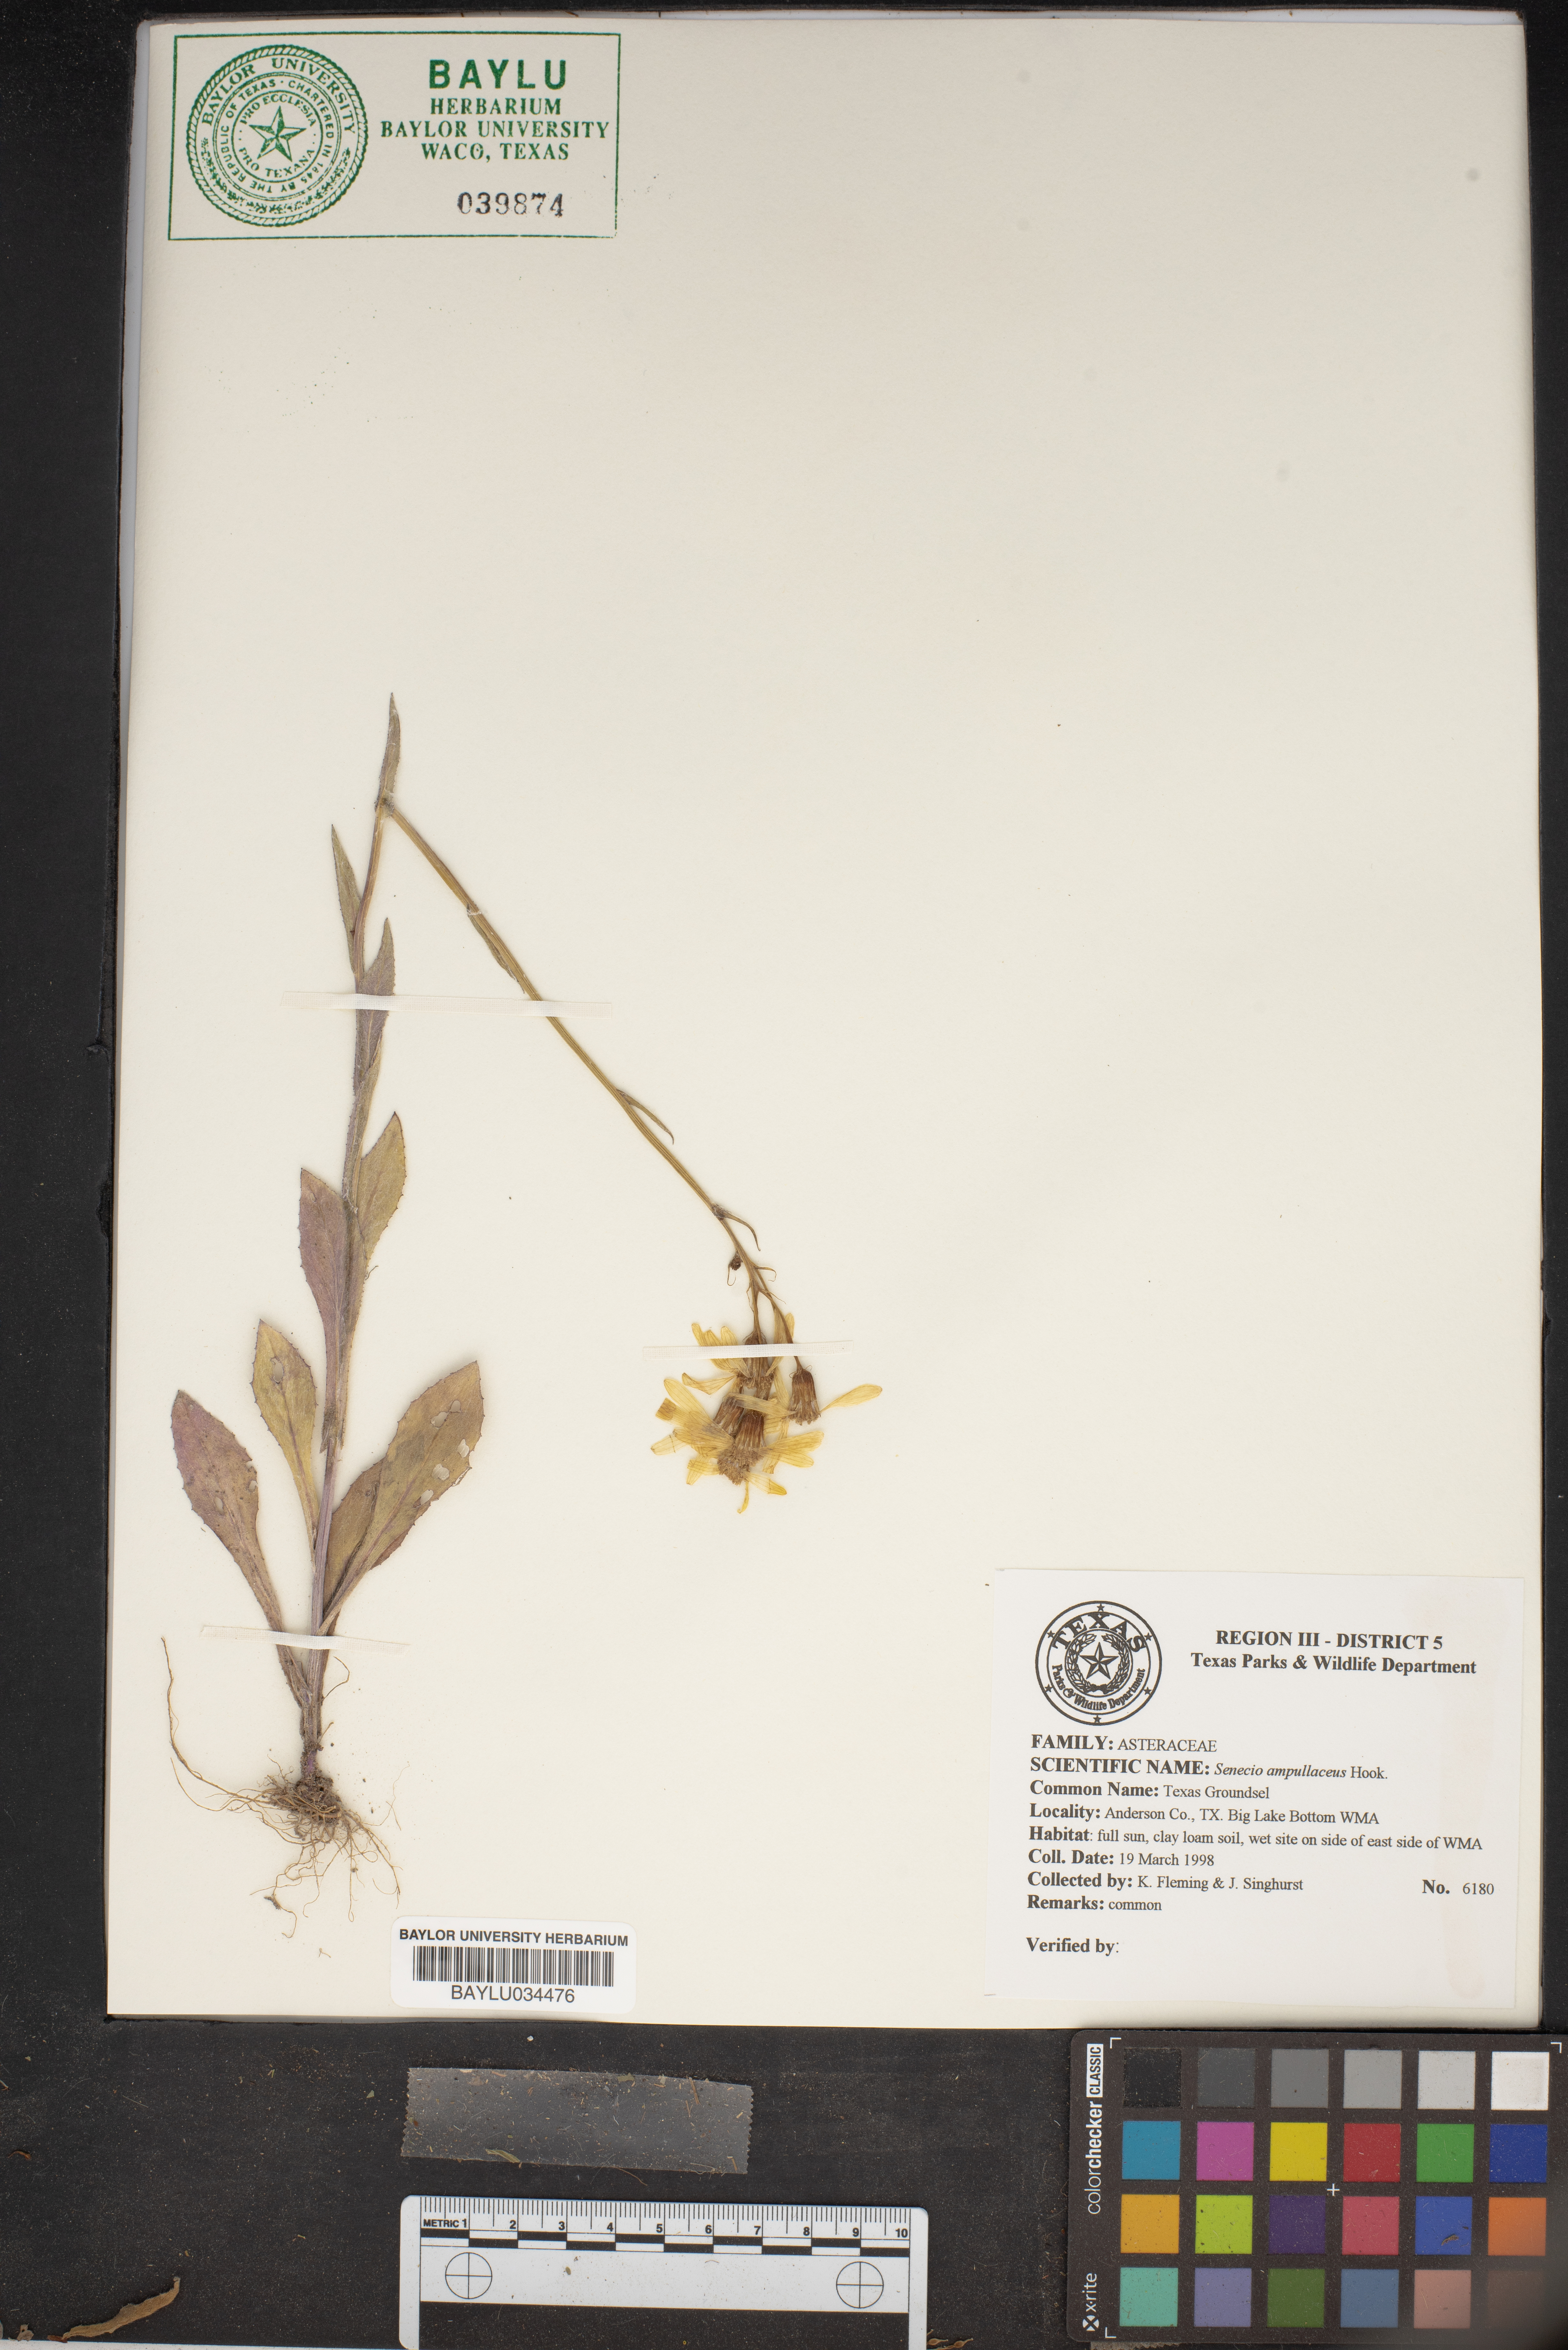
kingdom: Plantae
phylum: Tracheophyta
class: Magnoliopsida
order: Asterales
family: Asteraceae
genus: Senecio
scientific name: Senecio ampullaceus
